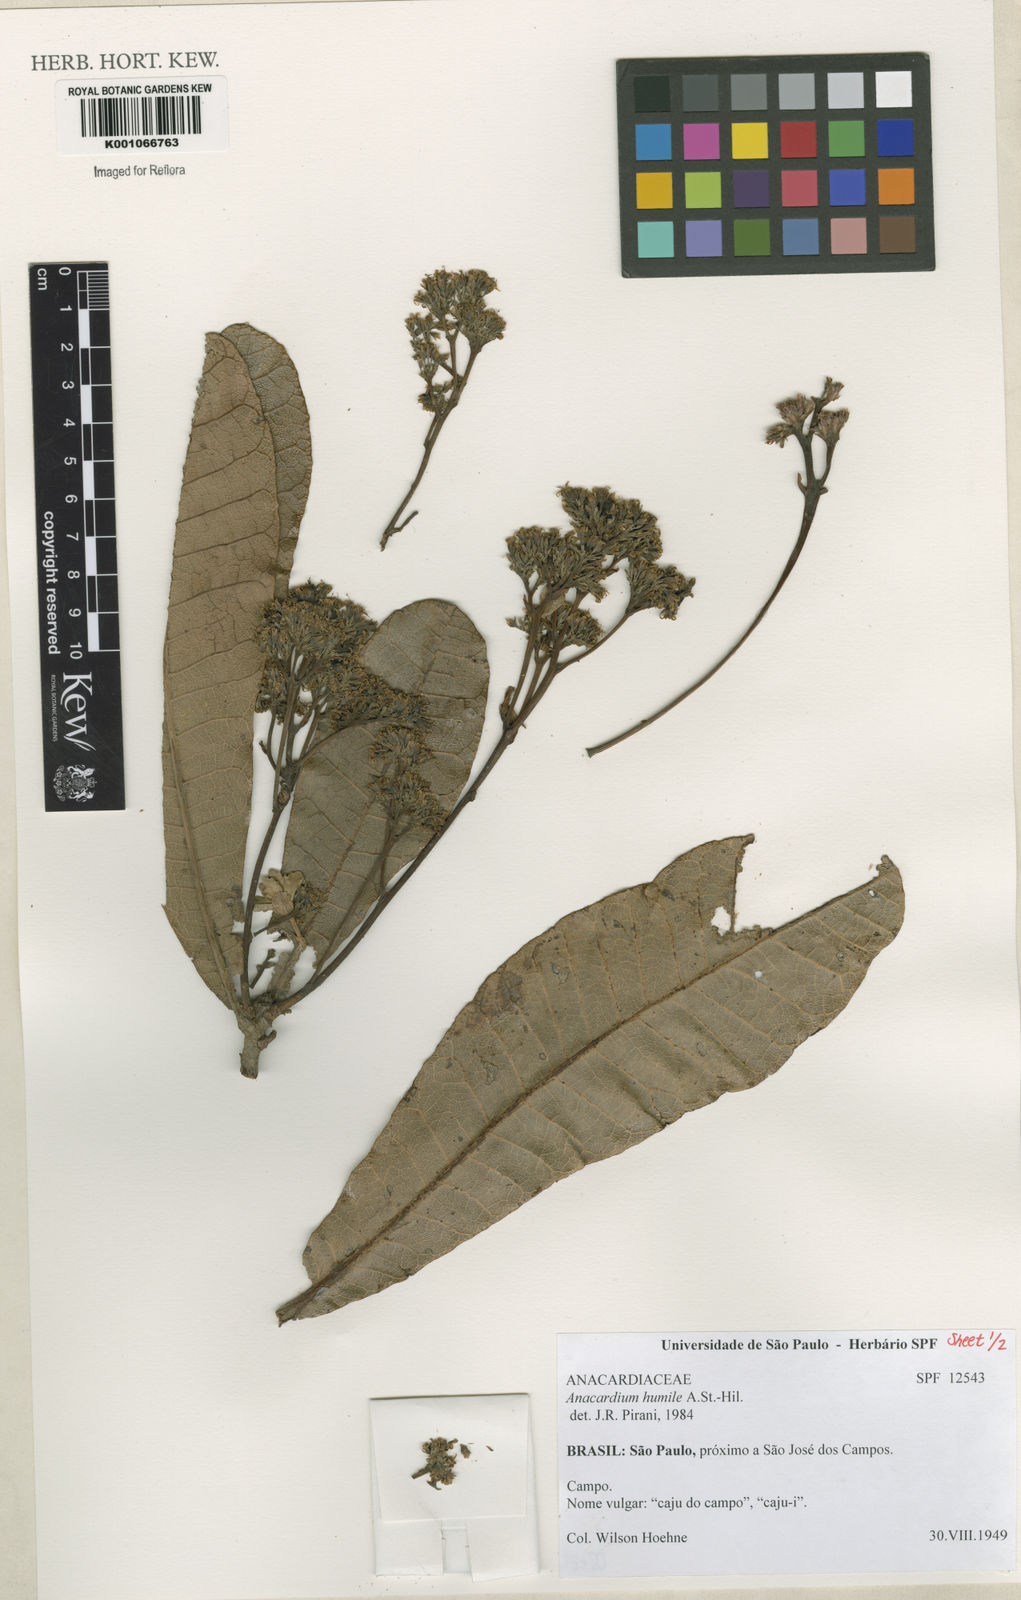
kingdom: Plantae
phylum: Tracheophyta
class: Magnoliopsida
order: Sapindales
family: Anacardiaceae
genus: Anacardium
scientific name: Anacardium humile
